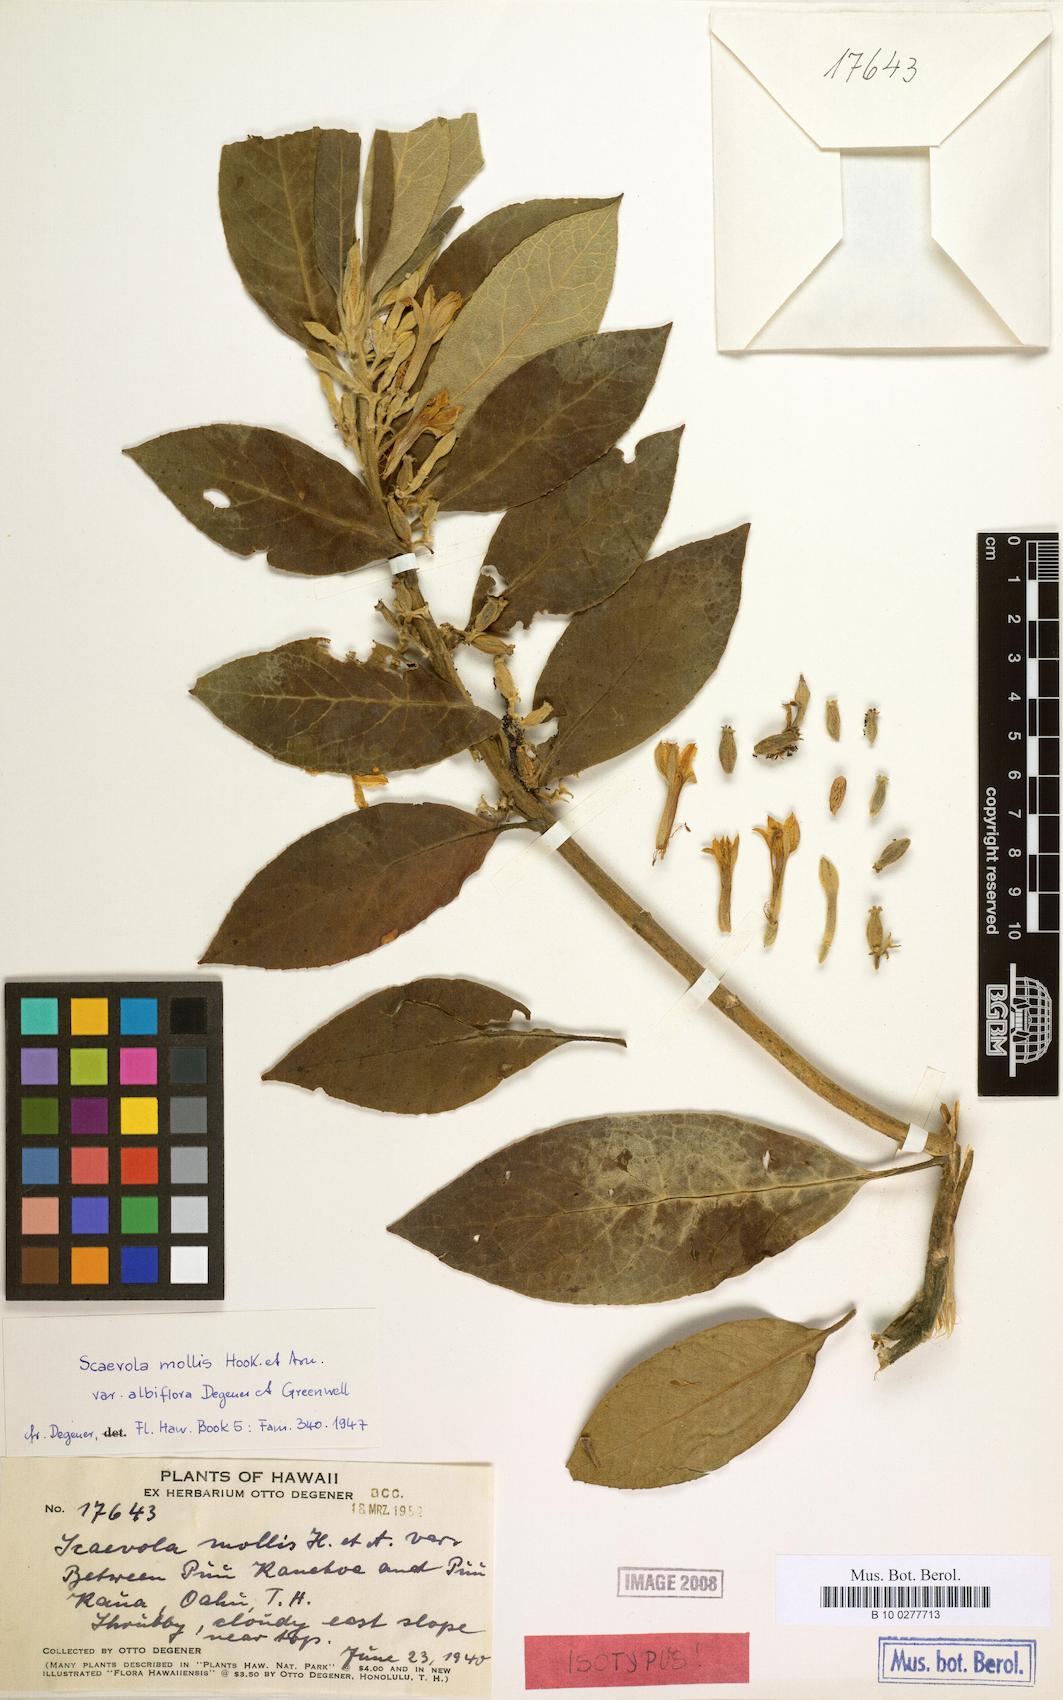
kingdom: Plantae
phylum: Tracheophyta
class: Magnoliopsida
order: Asterales
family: Goodeniaceae
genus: Scaevola
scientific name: Scaevola mollis
